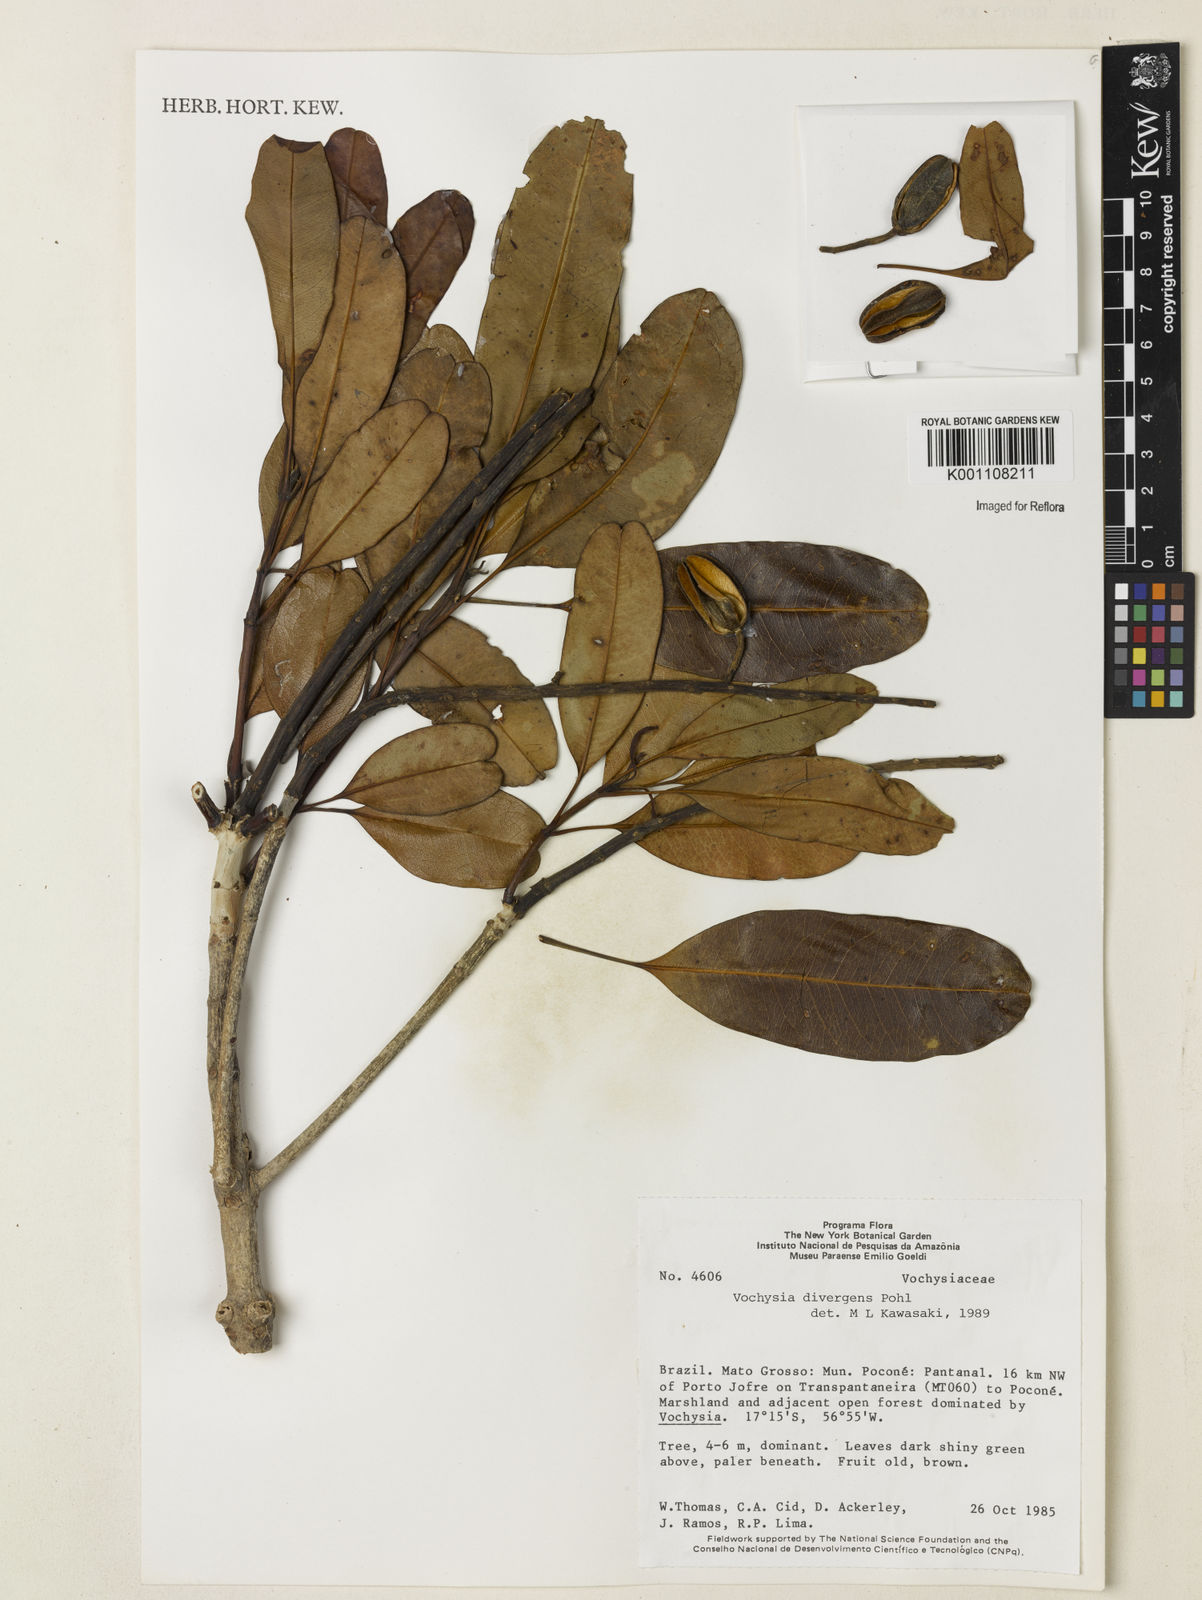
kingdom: Plantae
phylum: Tracheophyta
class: Magnoliopsida
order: Myrtales
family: Vochysiaceae
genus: Vochysia
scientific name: Vochysia divergens
